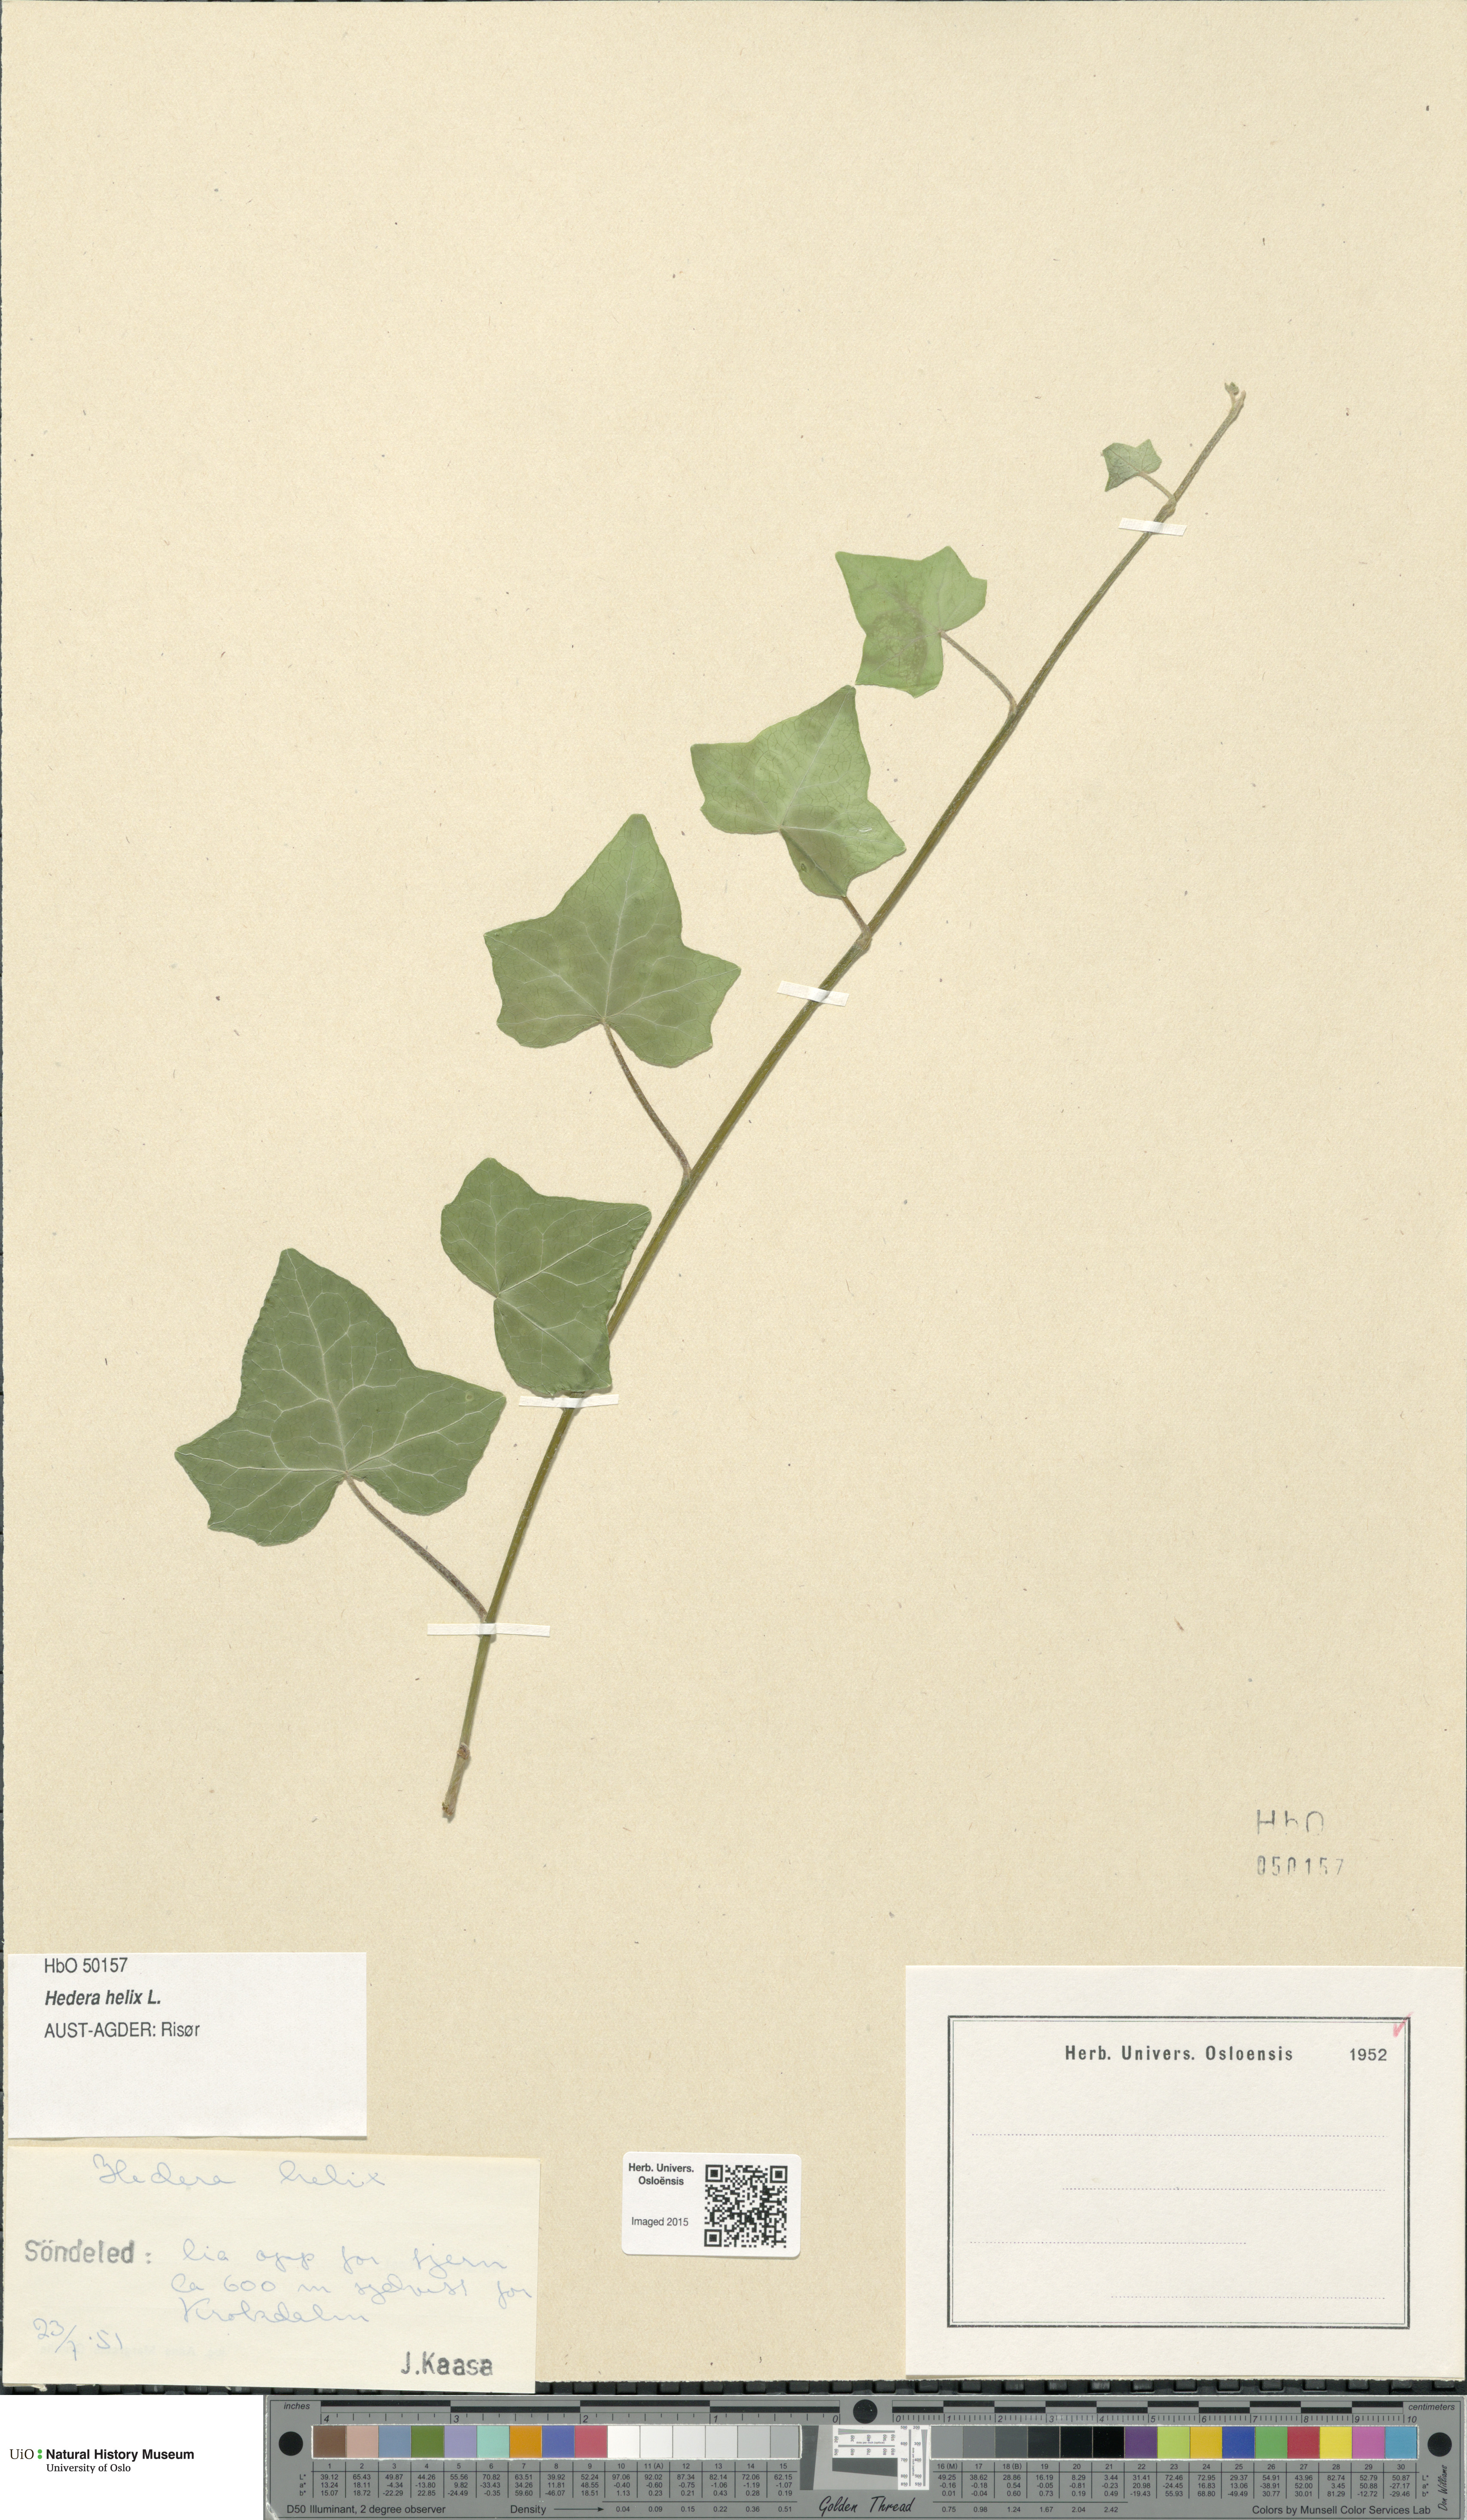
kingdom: Plantae
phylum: Tracheophyta
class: Magnoliopsida
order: Apiales
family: Araliaceae
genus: Hedera
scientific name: Hedera helix
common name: Ivy
